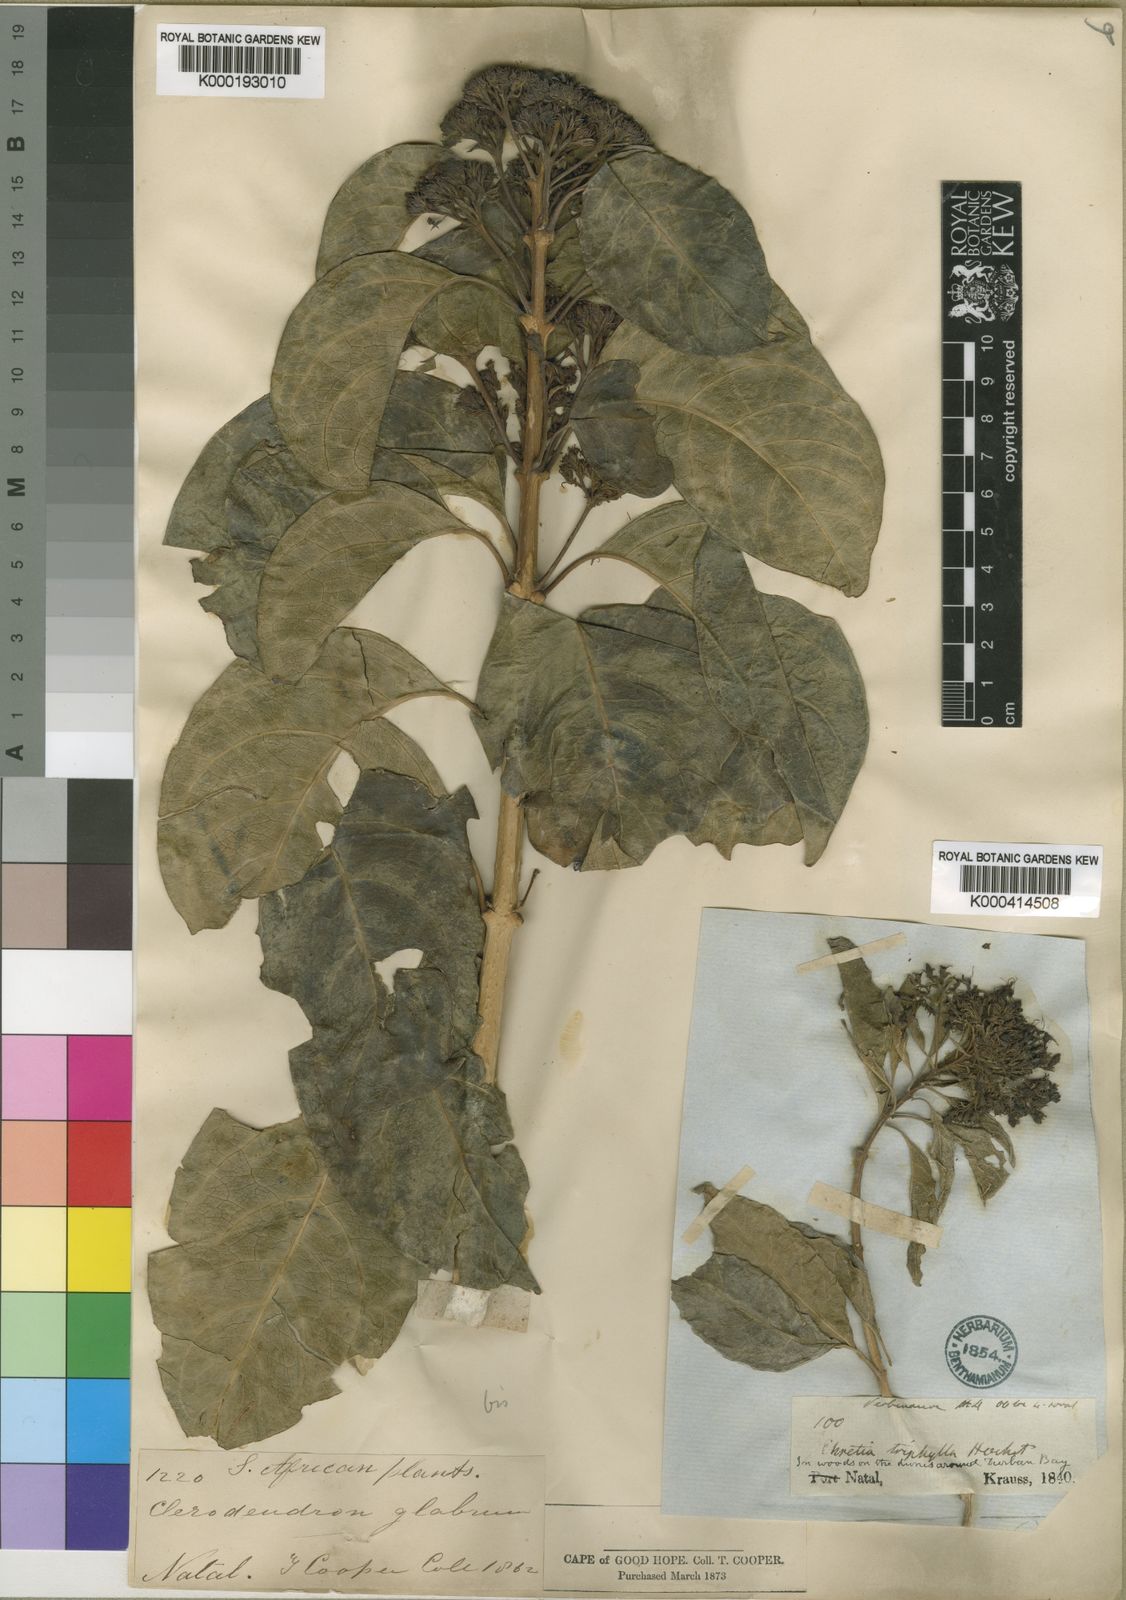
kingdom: Plantae
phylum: Tracheophyta
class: Magnoliopsida
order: Lamiales
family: Lamiaceae
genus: Volkameria
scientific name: Volkameria glabra
